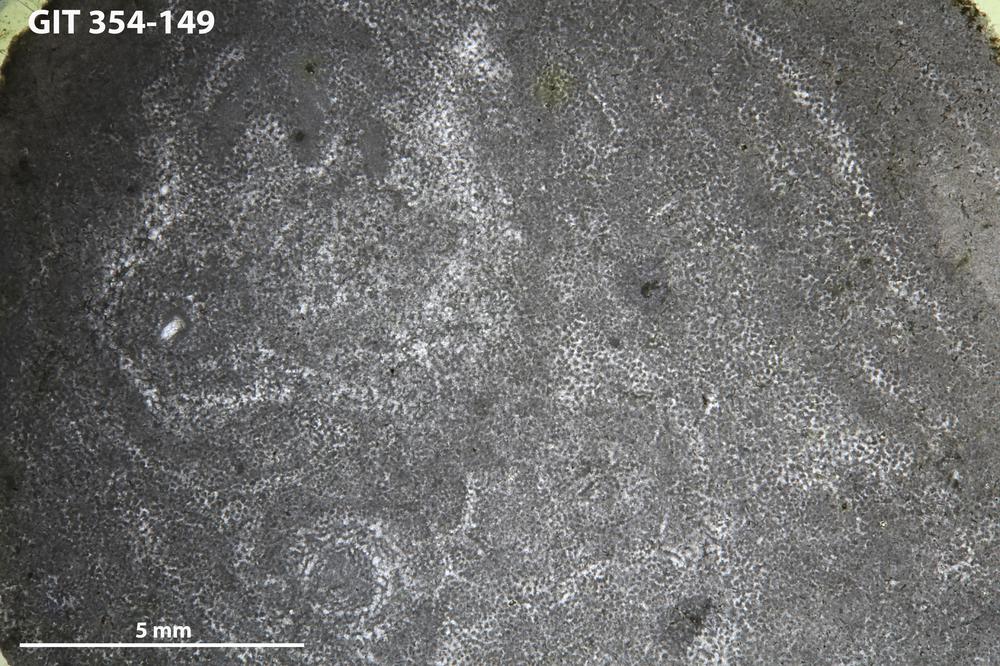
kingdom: Animalia
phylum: Porifera
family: Ecclimadictyidae
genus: Ecclimadictyon
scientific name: Ecclimadictyon Clathrodictyon microvesiculosum
